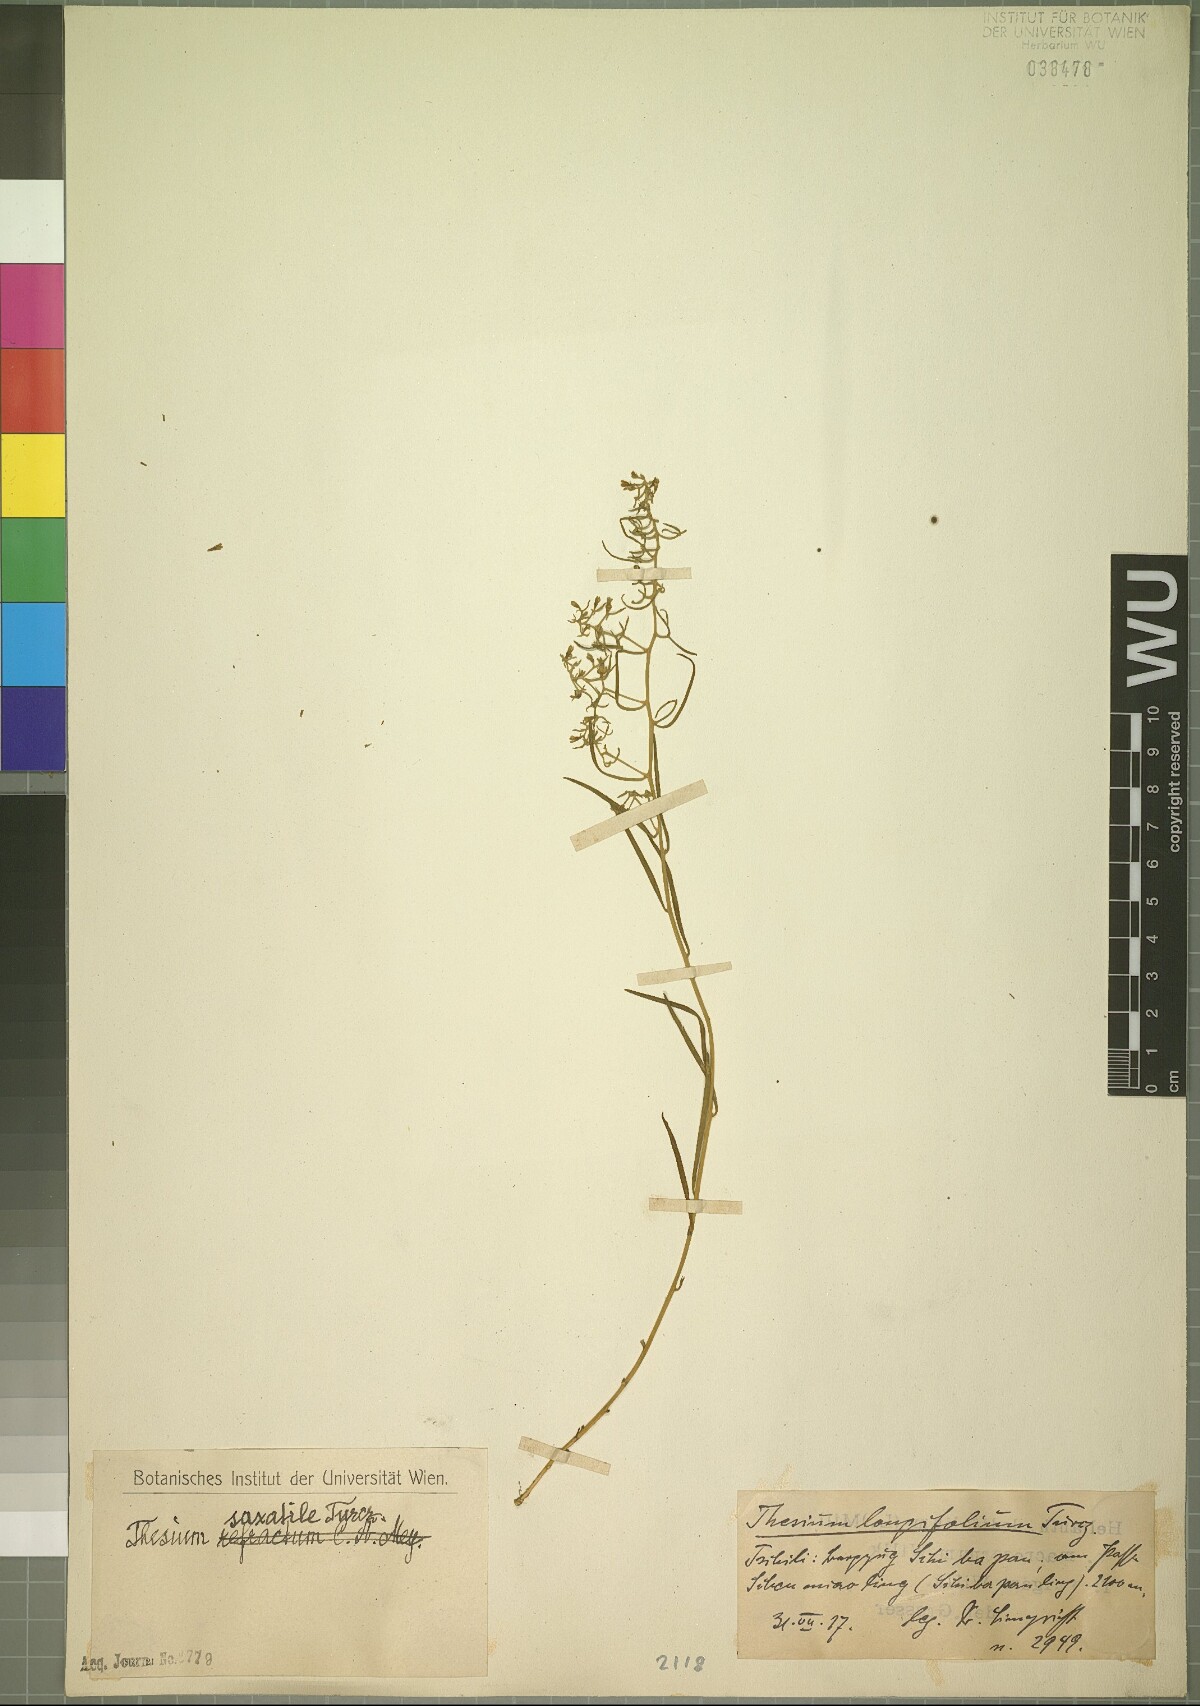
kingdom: Plantae
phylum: Tracheophyta
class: Magnoliopsida
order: Santalales
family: Thesiaceae
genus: Thesium
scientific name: Thesium saxatile
